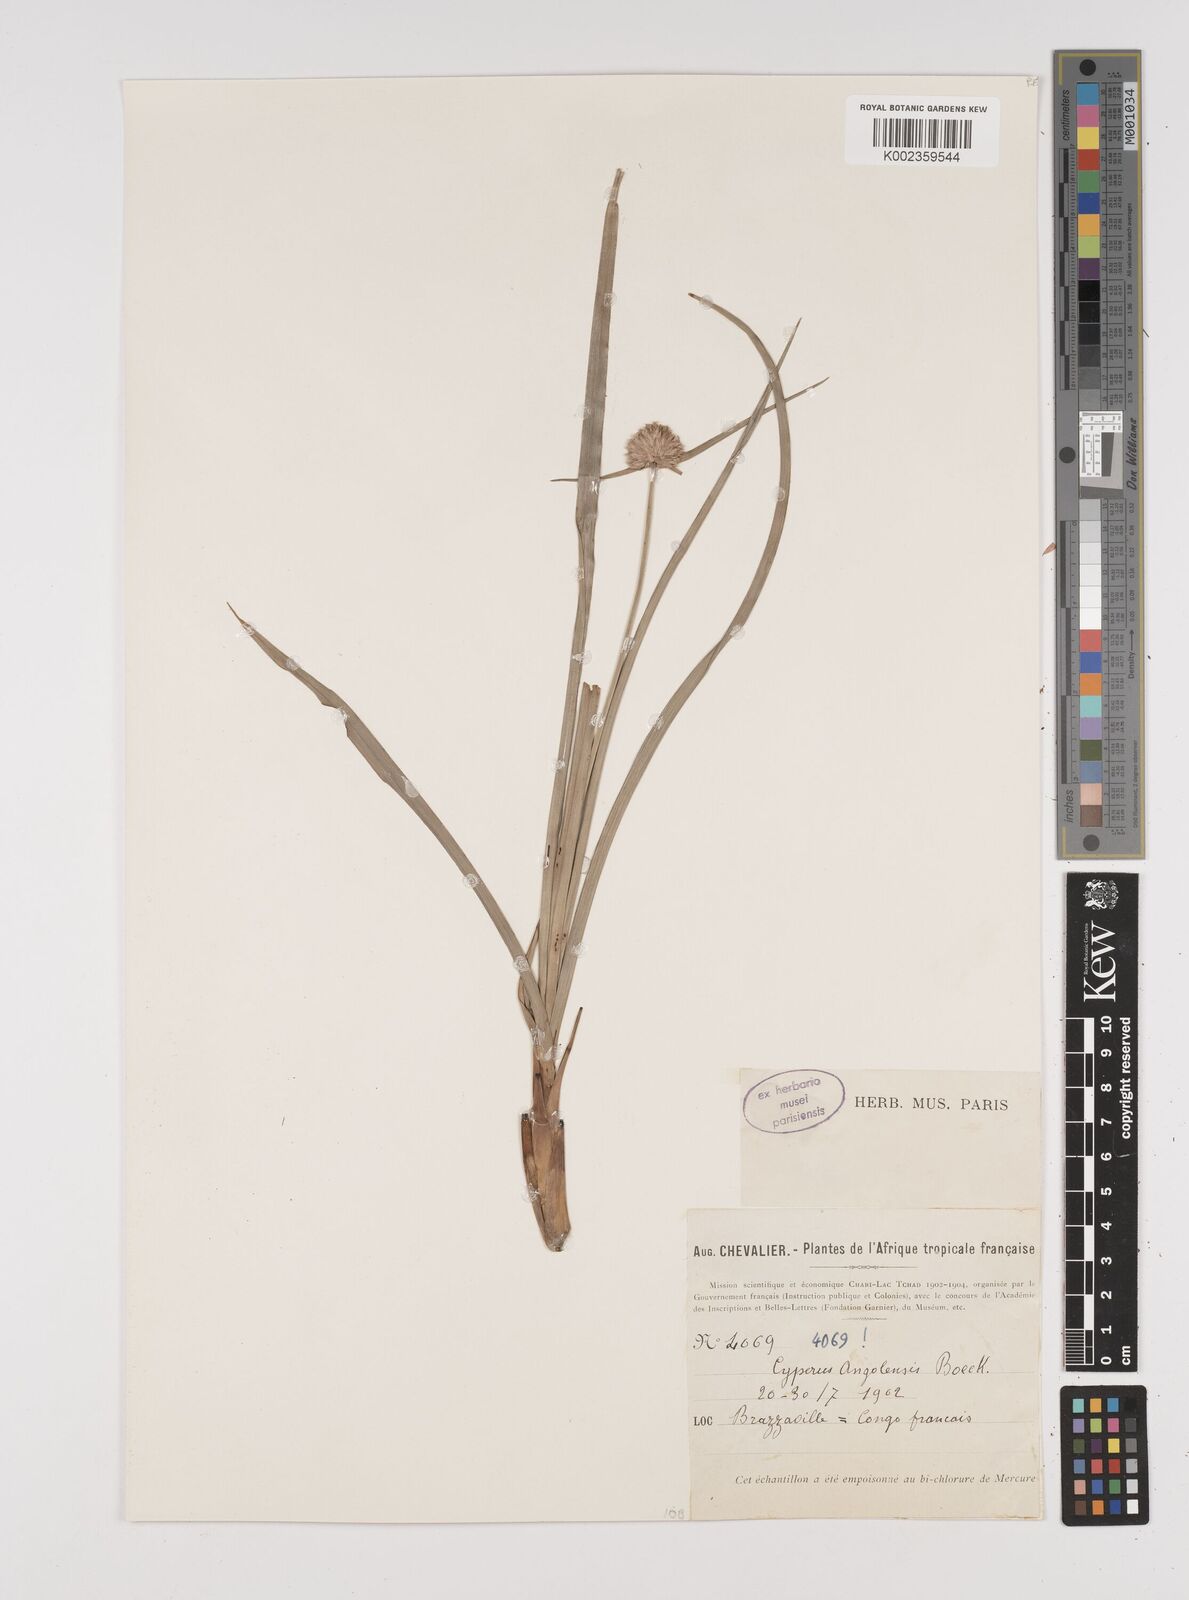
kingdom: Plantae
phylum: Tracheophyta
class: Liliopsida
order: Poales
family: Cyperaceae
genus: Cyperus
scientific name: Cyperus angolensis
